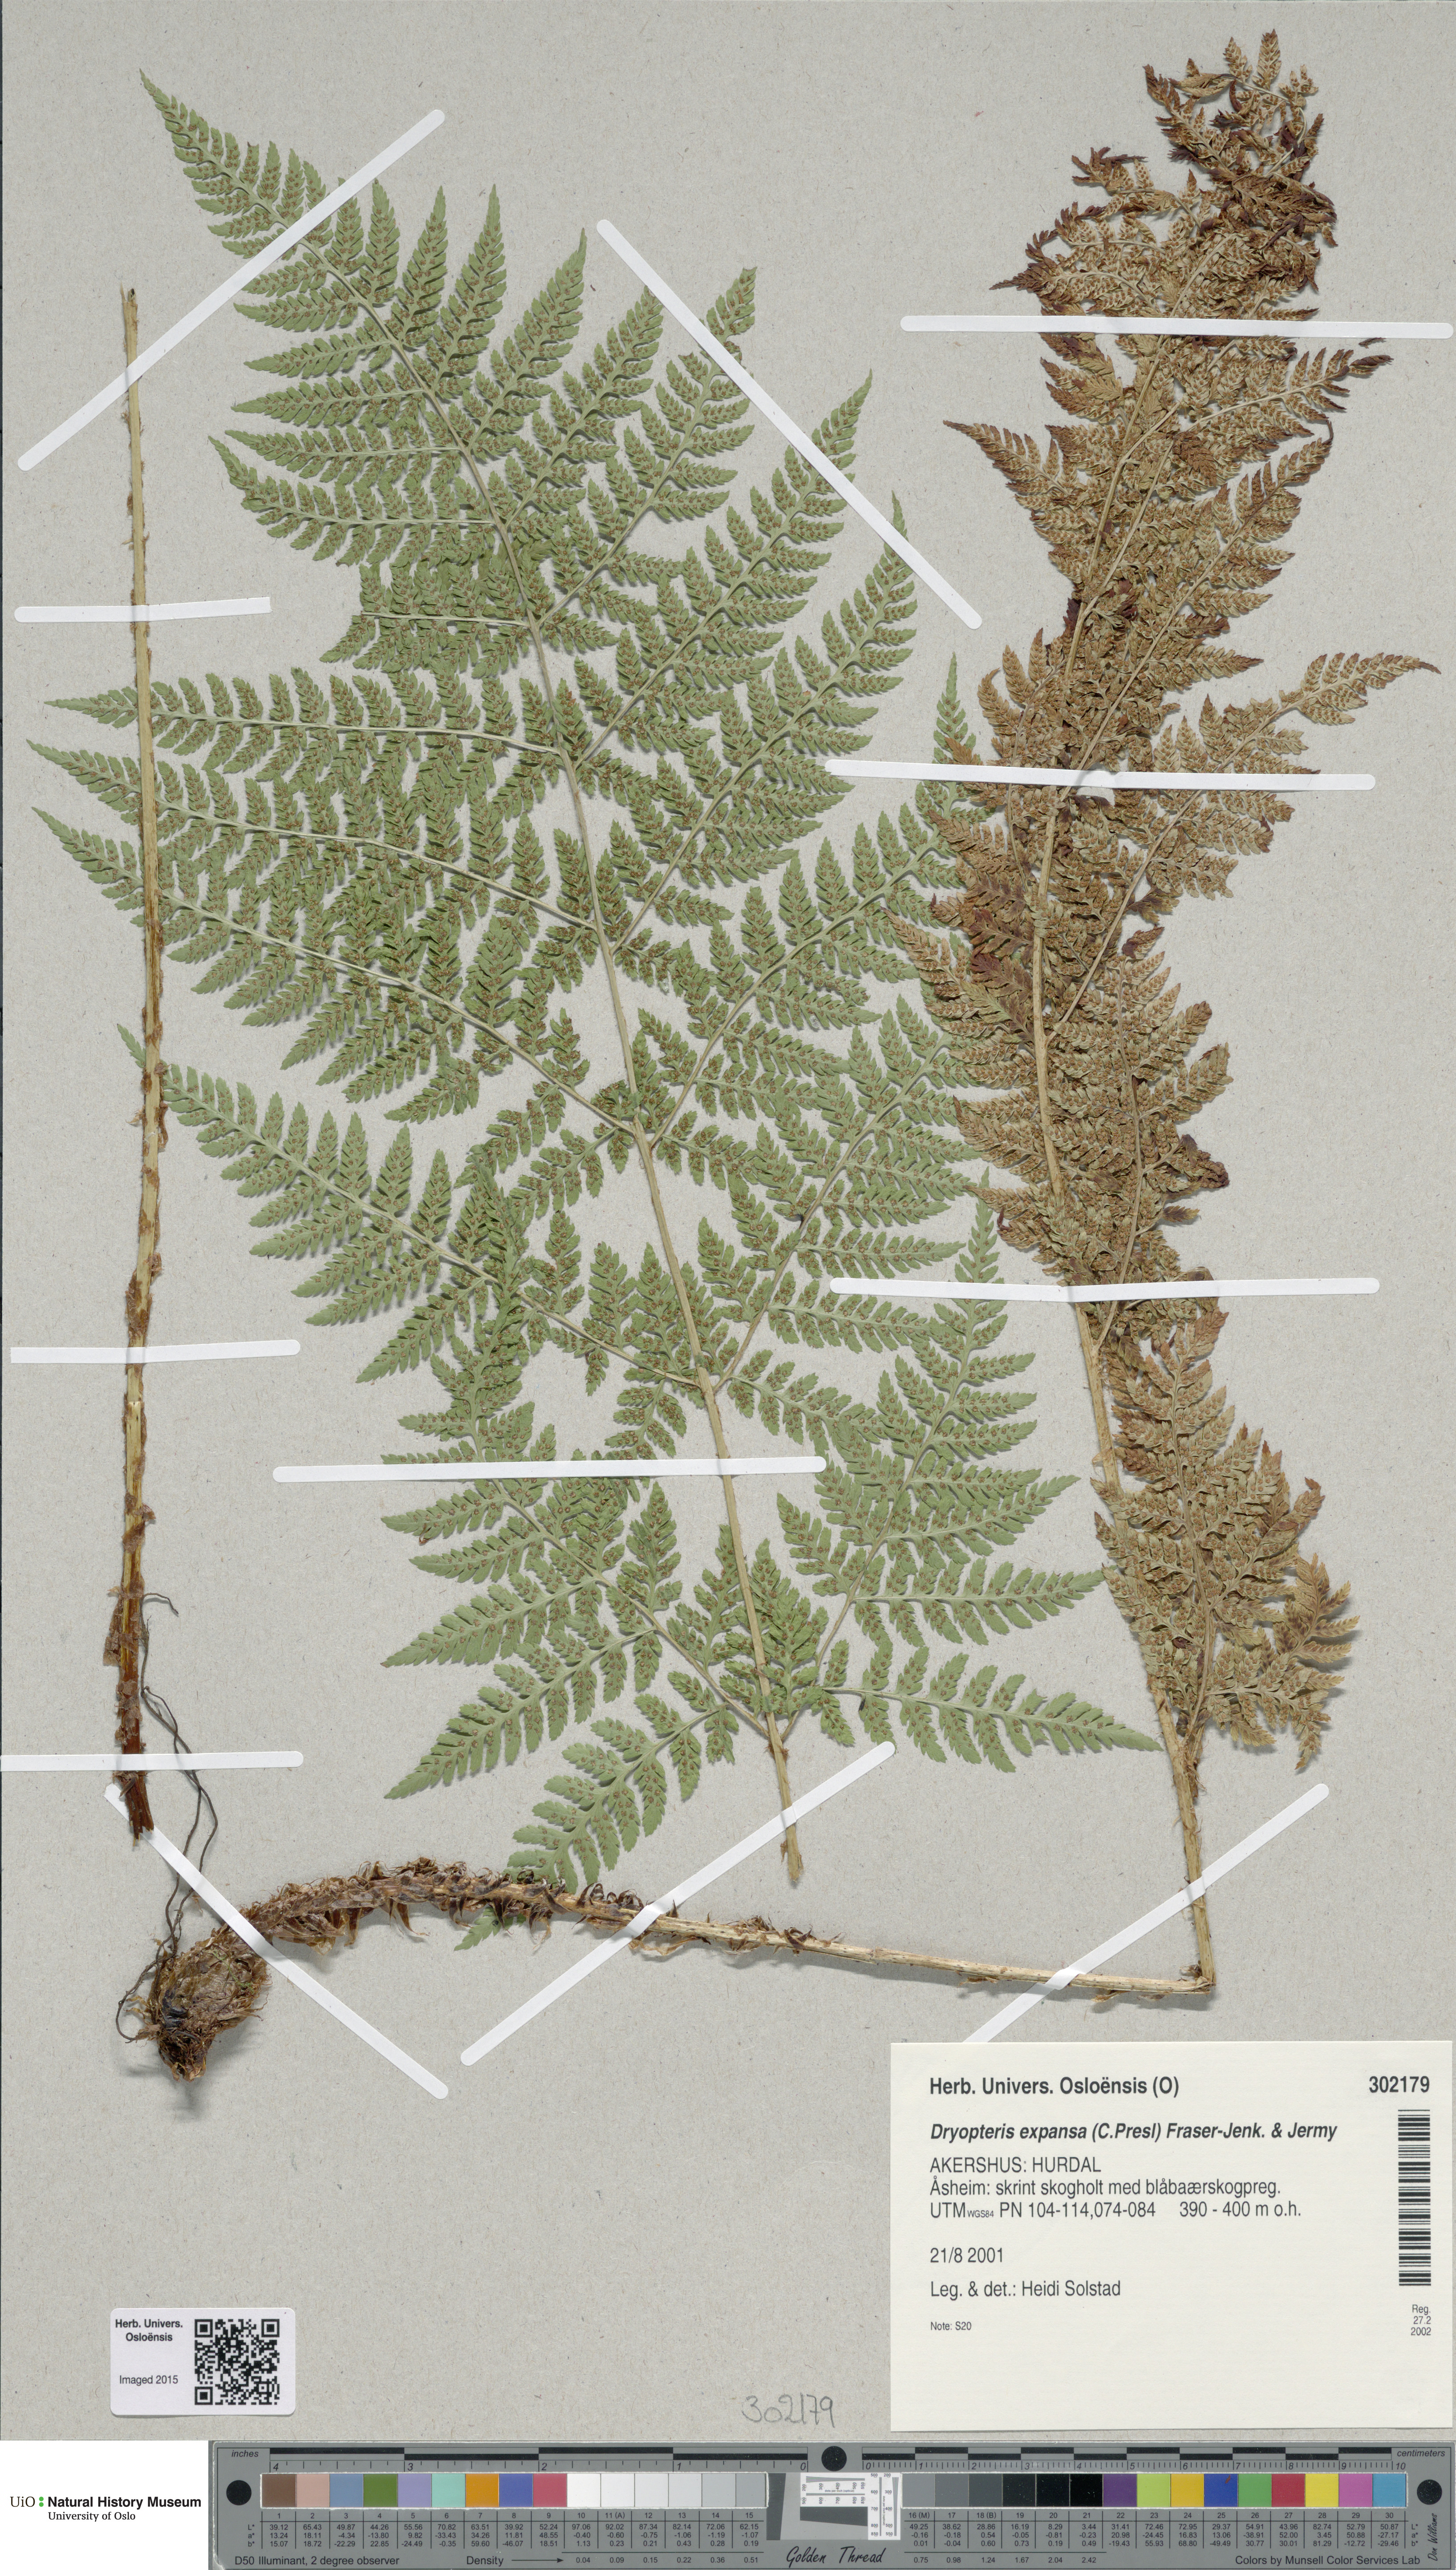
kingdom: Plantae
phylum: Tracheophyta
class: Polypodiopsida
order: Polypodiales
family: Dryopteridaceae
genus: Dryopteris
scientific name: Dryopteris expansa
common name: Northern buckler fern
